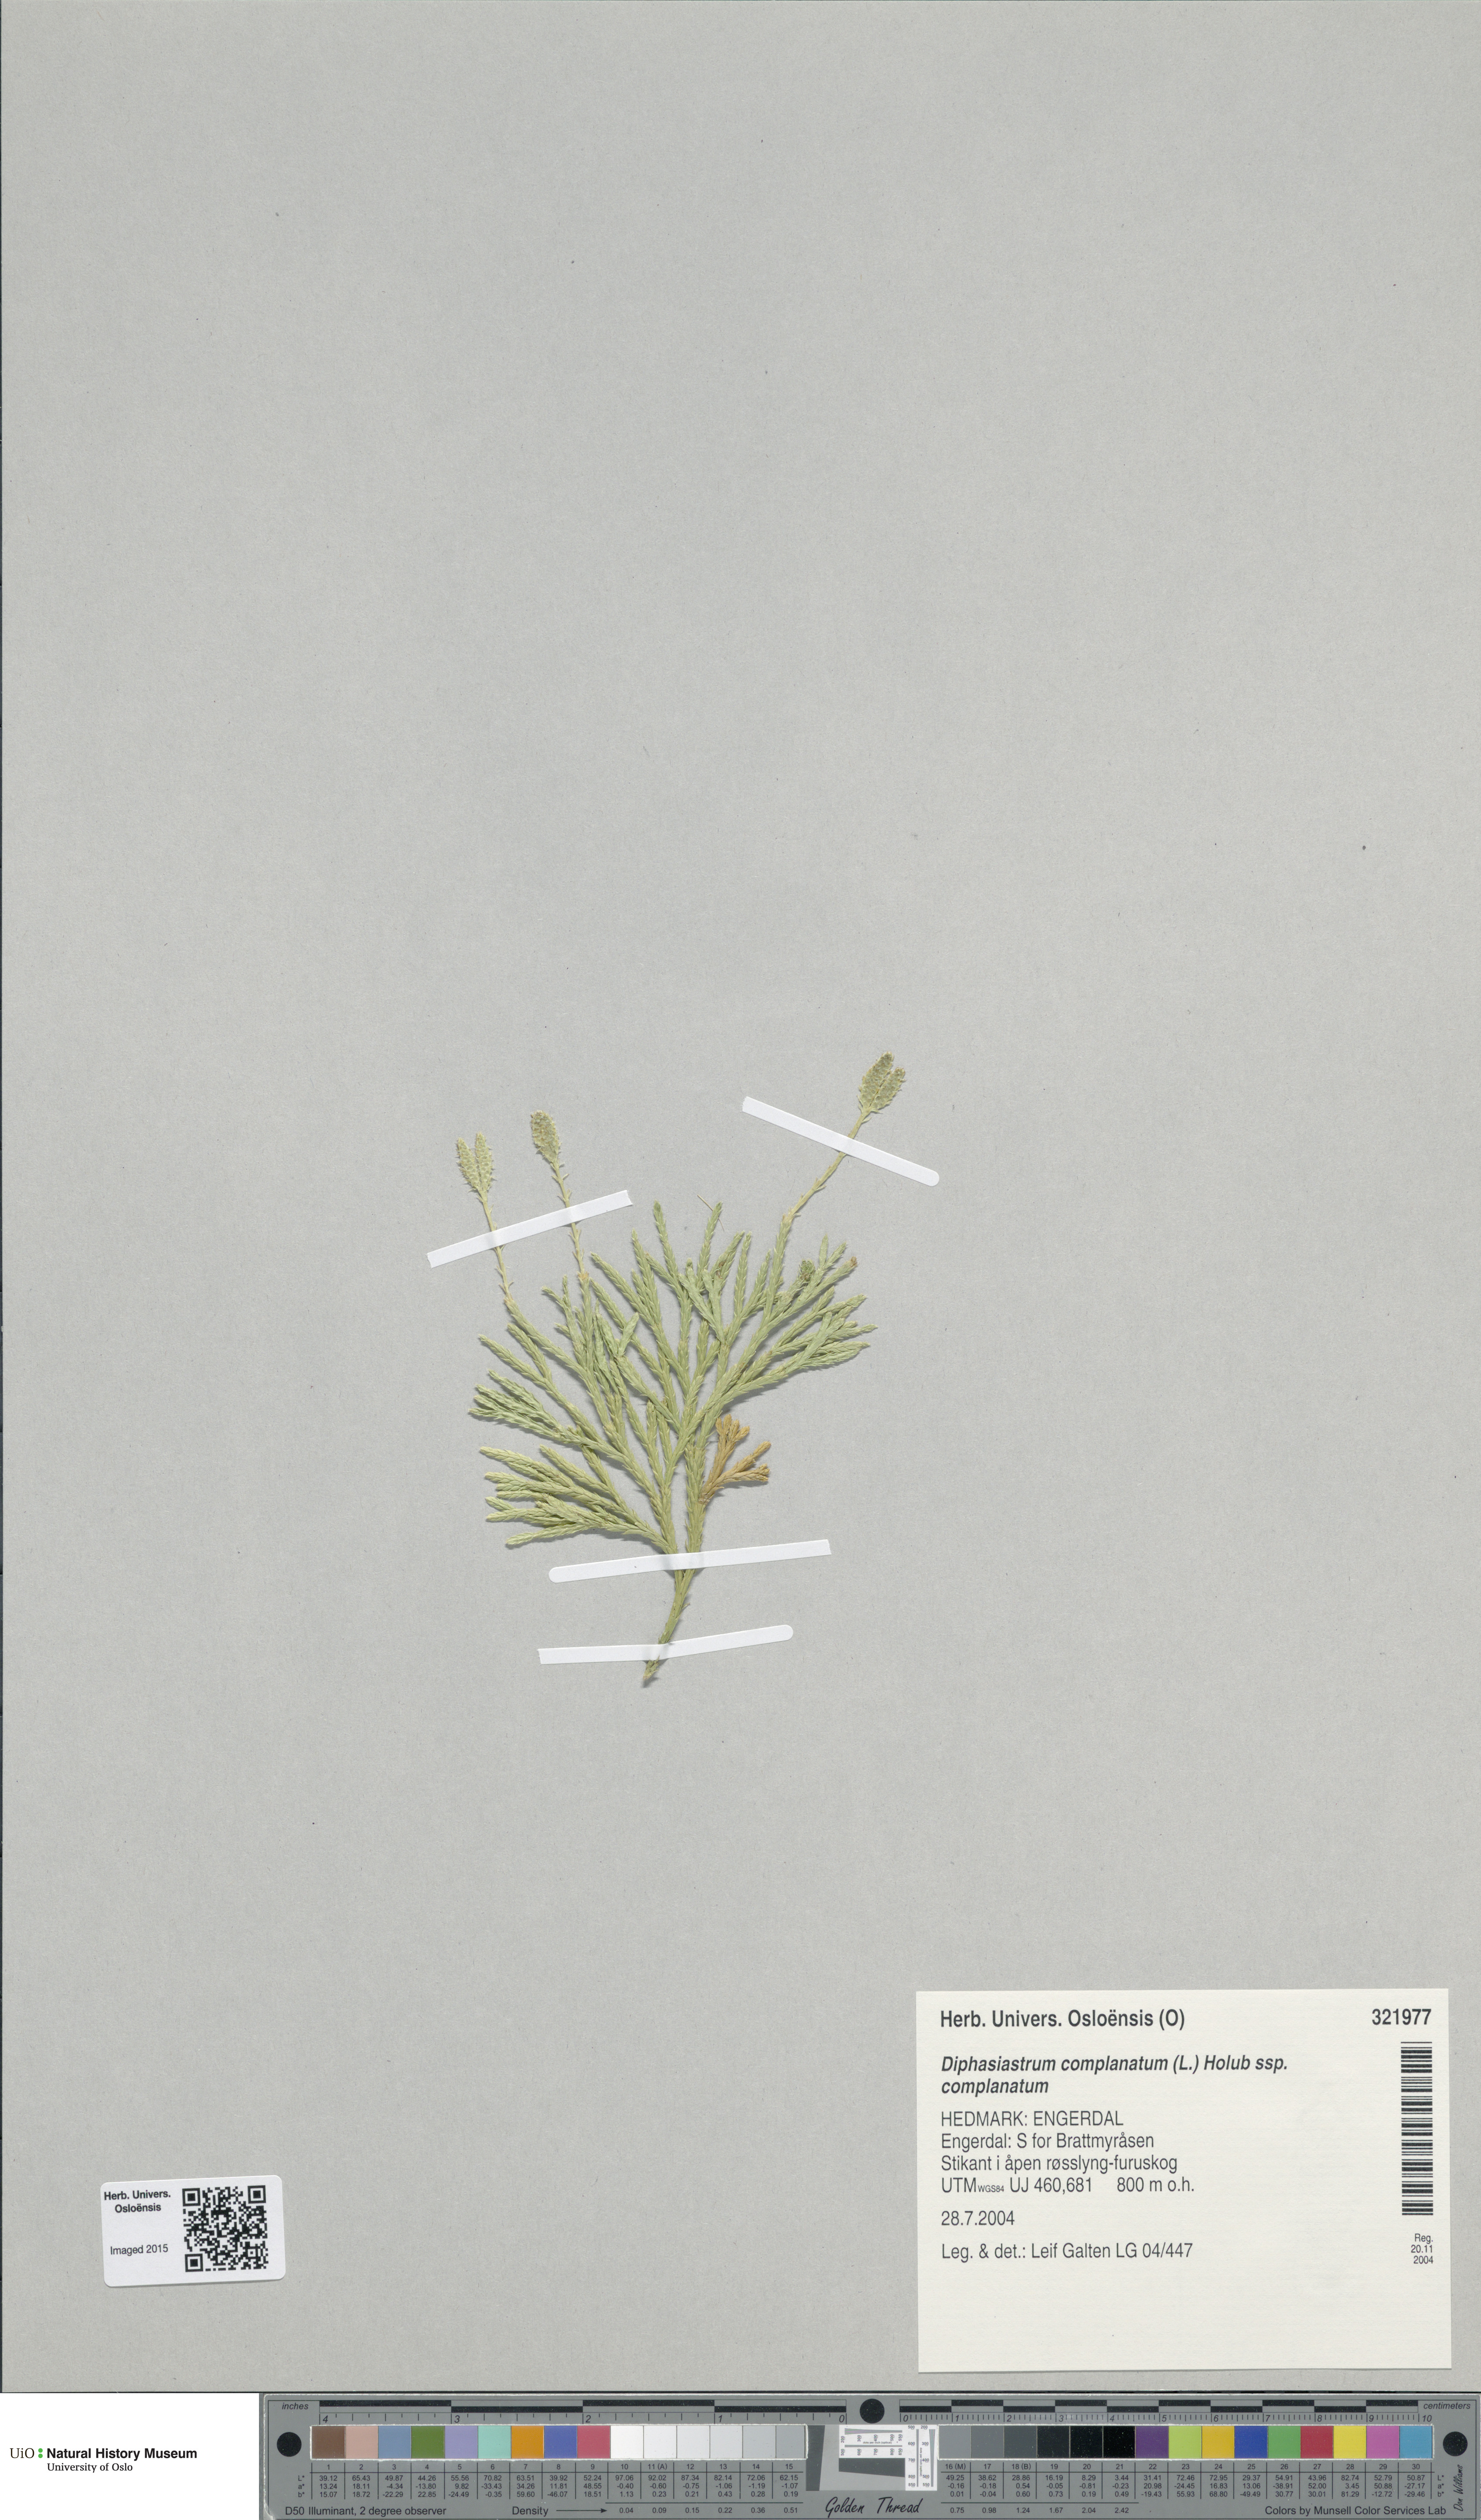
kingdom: Plantae
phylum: Tracheophyta
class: Lycopodiopsida
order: Lycopodiales
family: Lycopodiaceae
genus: Diphasiastrum
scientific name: Diphasiastrum complanatum
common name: Northern running-pine
